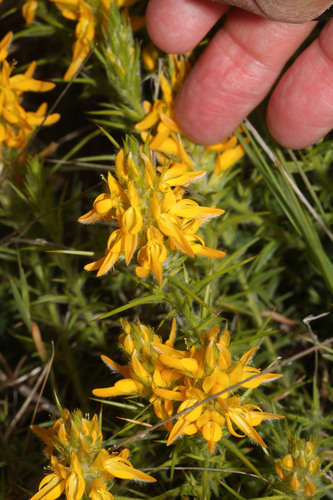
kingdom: Plantae
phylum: Tracheophyta
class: Magnoliopsida
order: Fabales
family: Fabaceae
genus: Genista
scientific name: Genista hirsuta
